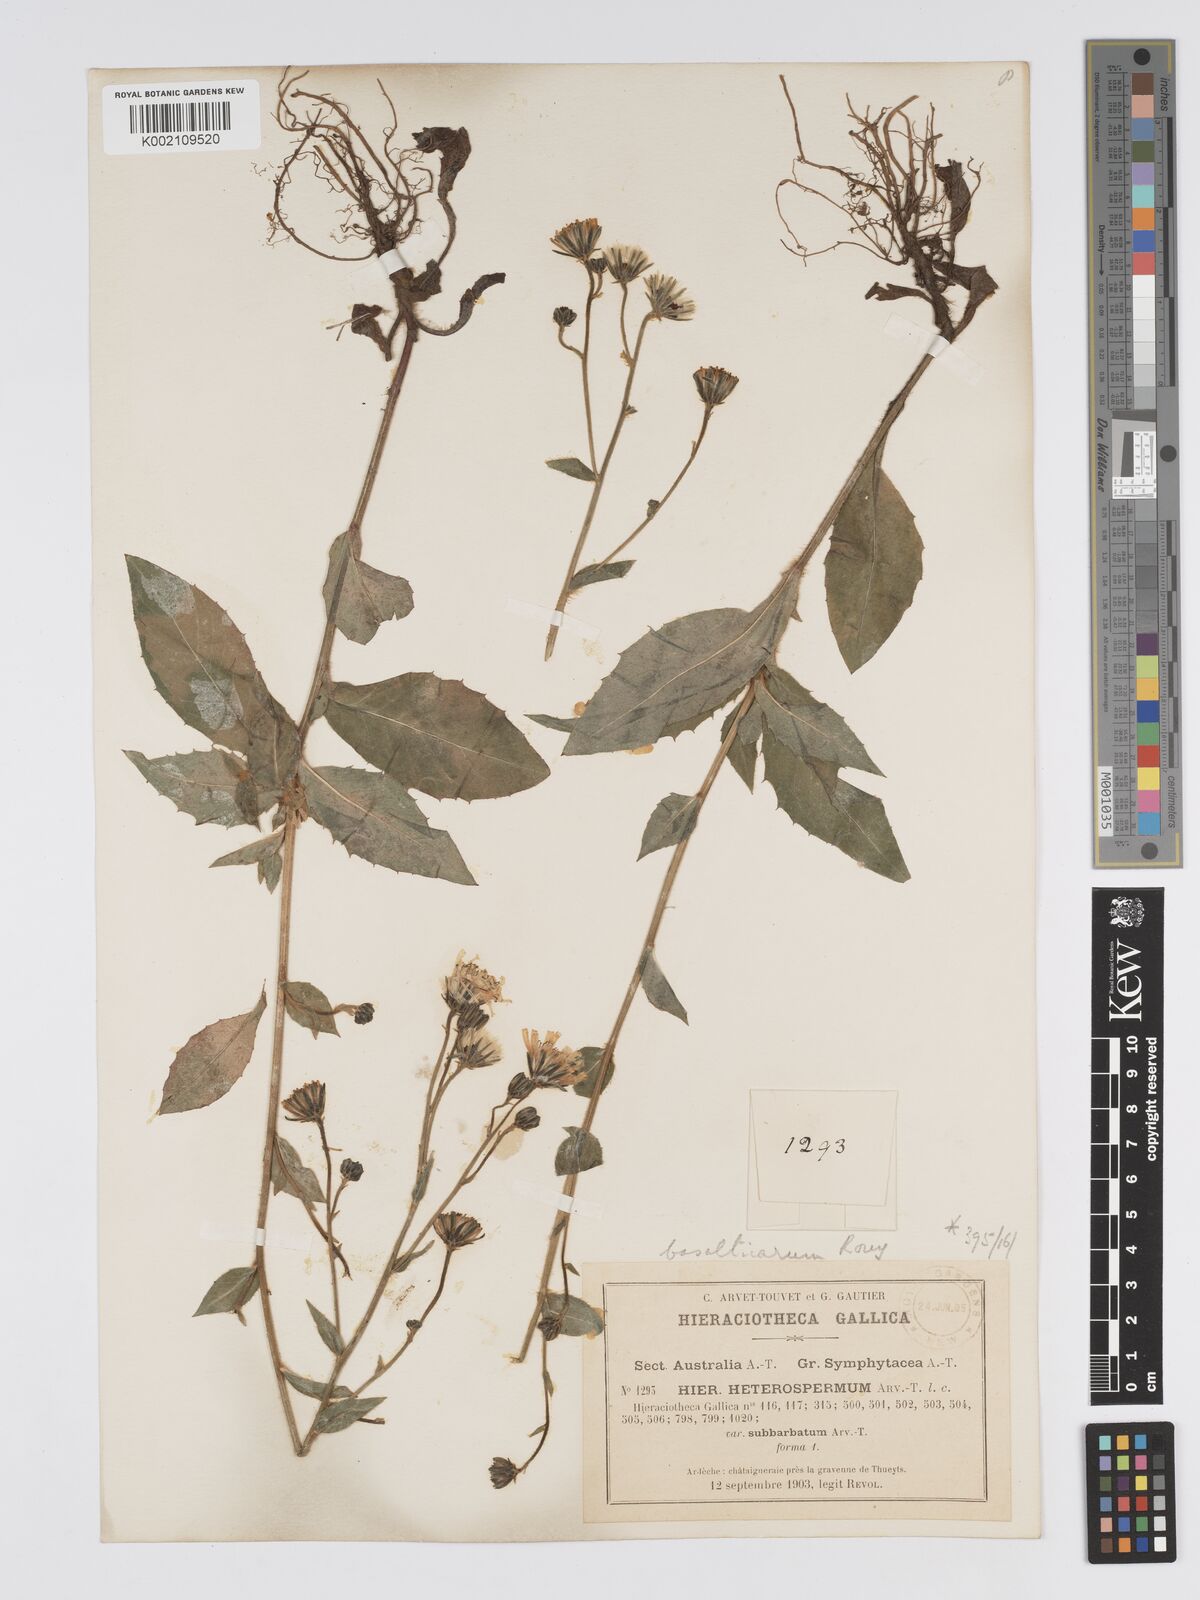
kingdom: Plantae
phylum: Tracheophyta
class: Magnoliopsida
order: Asterales
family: Asteraceae
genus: Hieracium
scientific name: Hieracium racemosum
